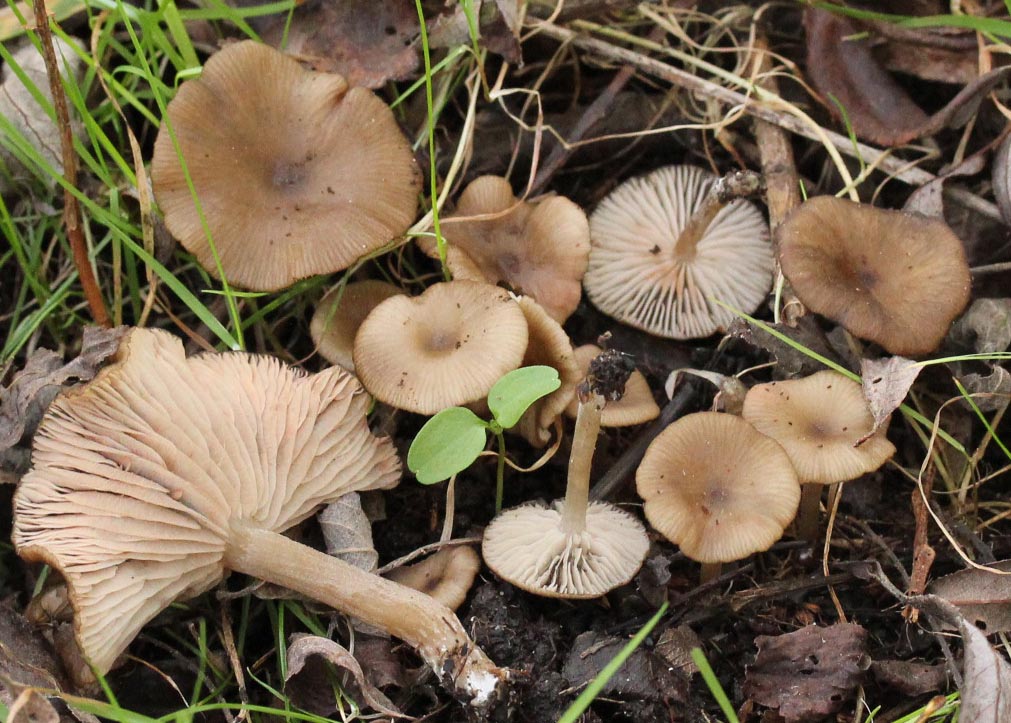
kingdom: Fungi
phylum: Basidiomycota
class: Agaricomycetes
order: Agaricales
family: Entolomataceae
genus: Entoloma
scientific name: Entoloma caccabus
